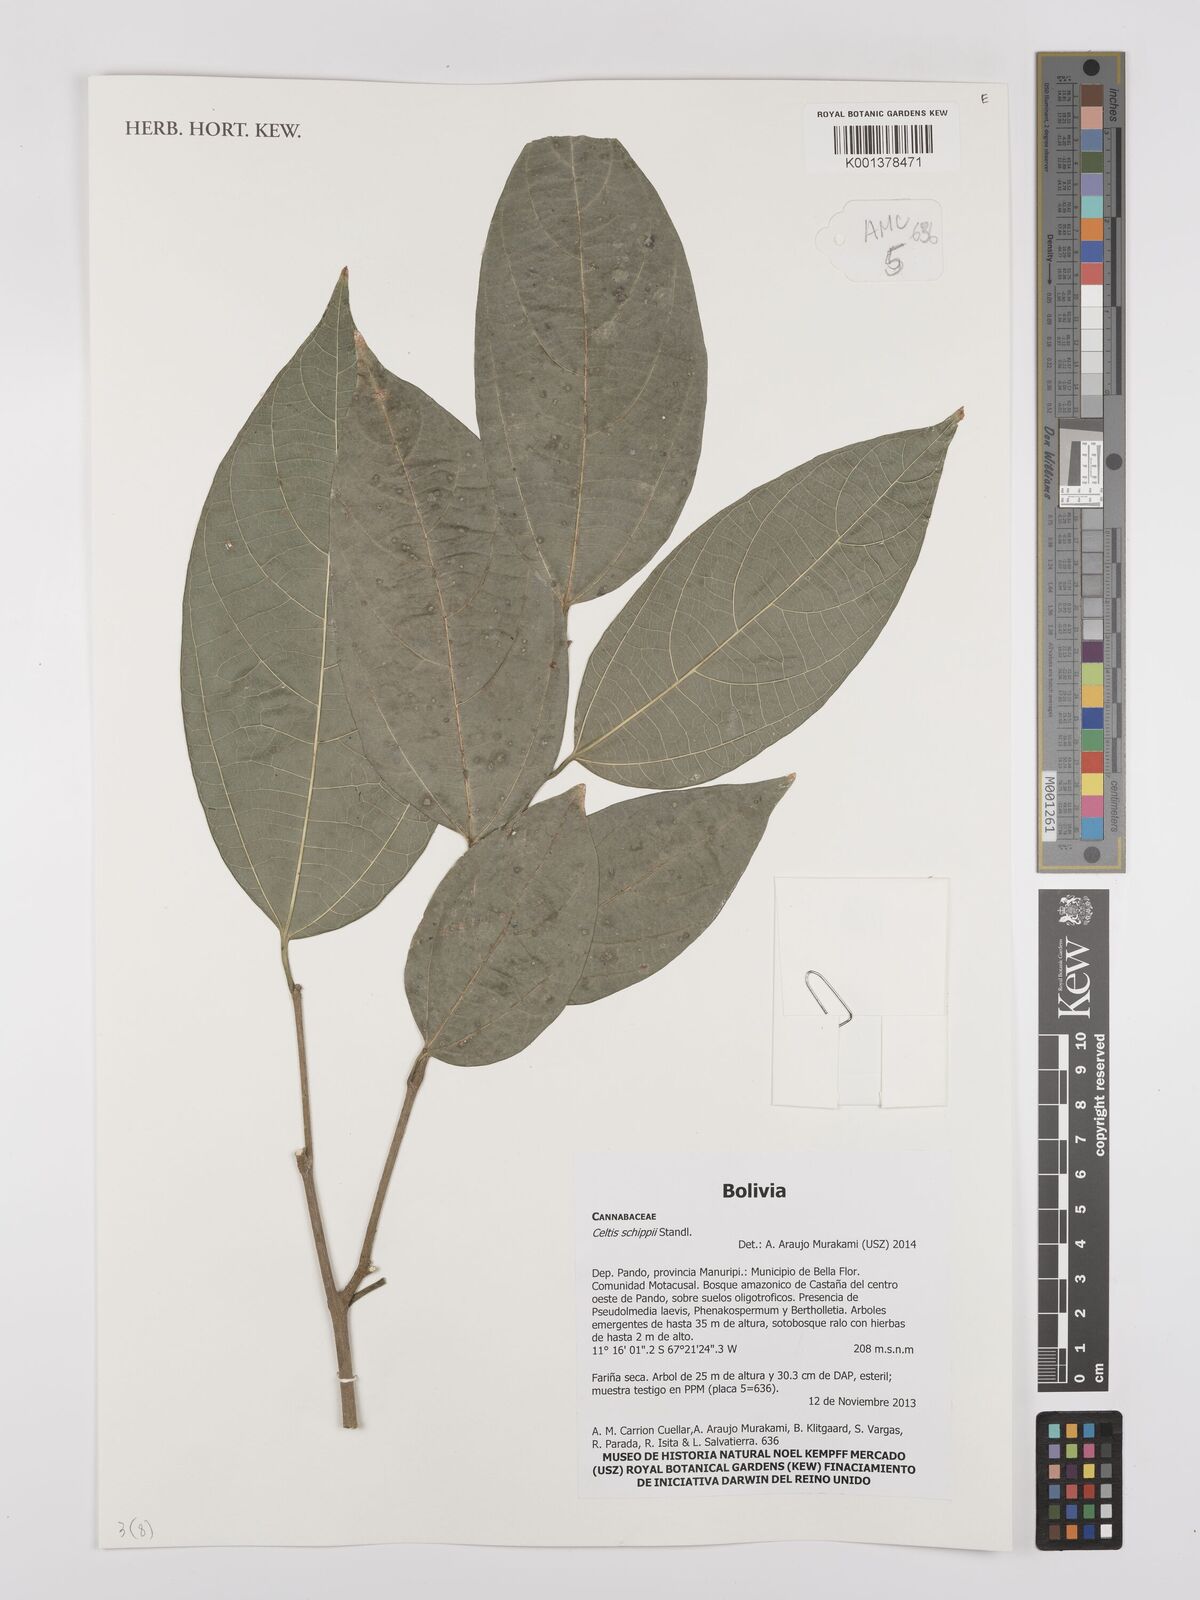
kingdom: Plantae
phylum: Tracheophyta
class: Magnoliopsida
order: Rosales
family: Cannabaceae
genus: Celtis
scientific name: Celtis schippii
